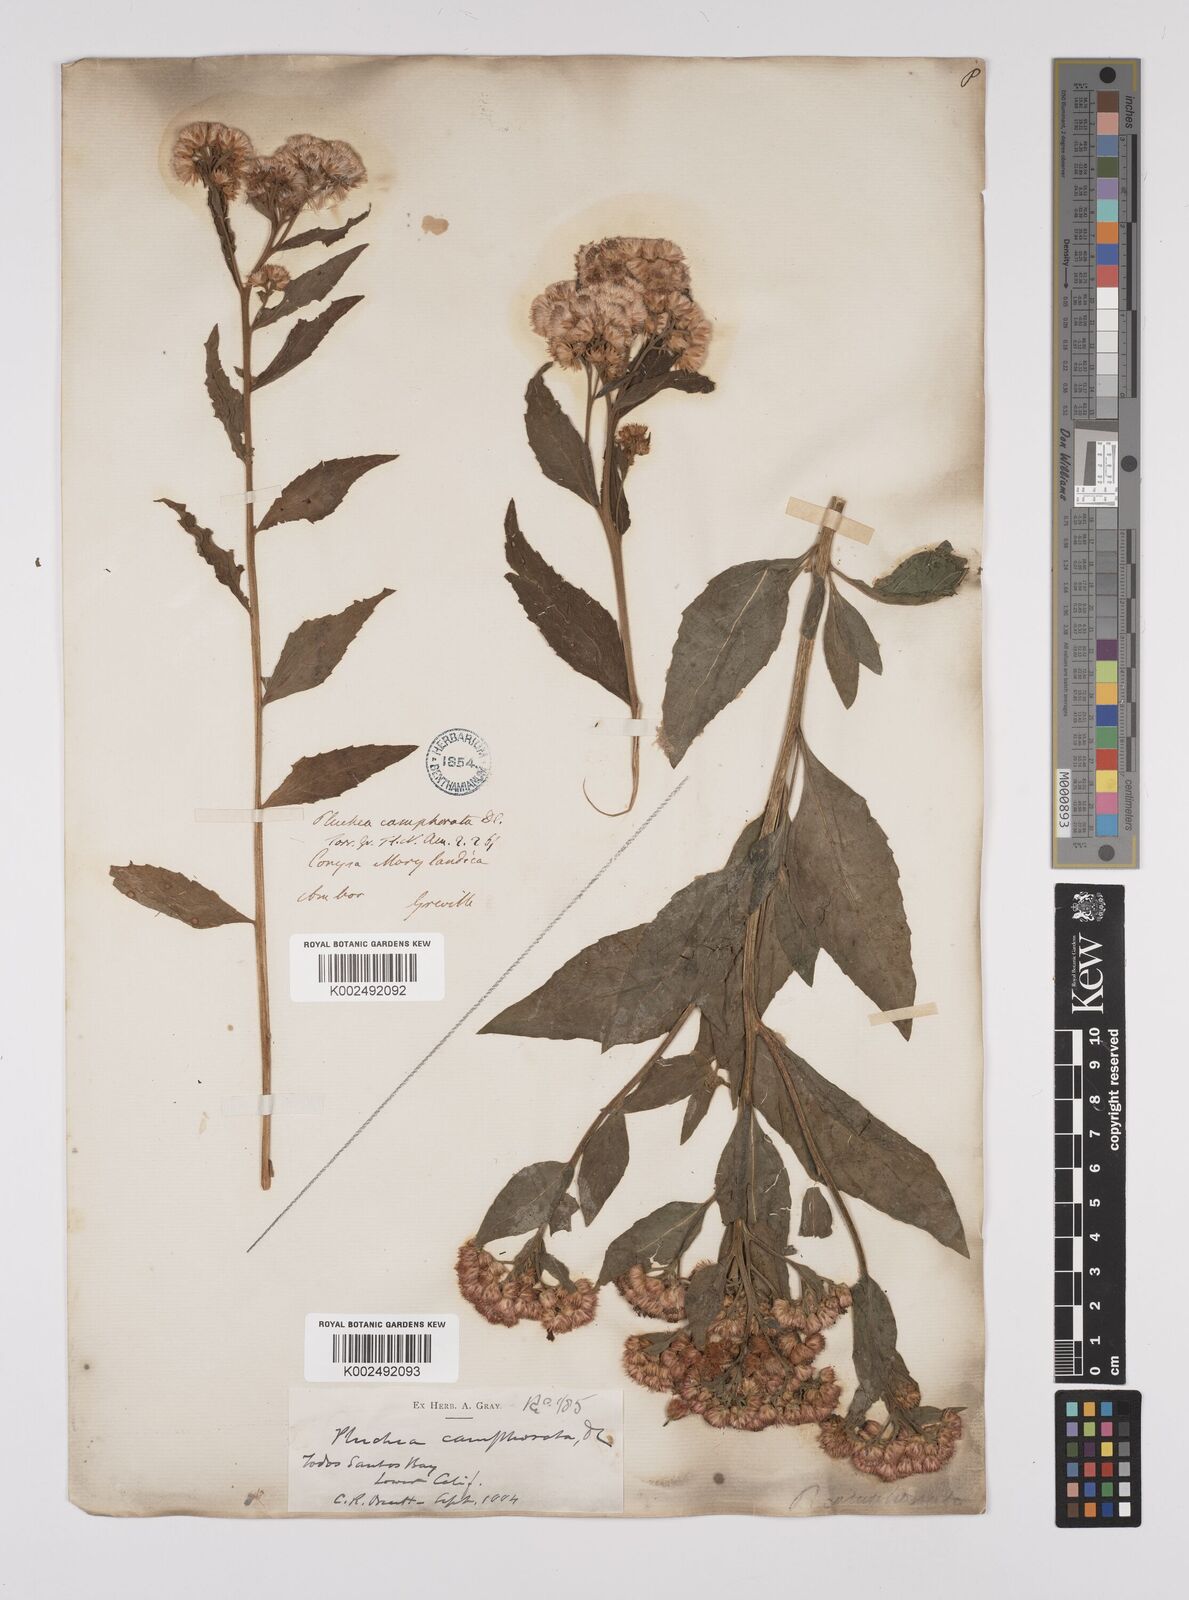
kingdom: Plantae
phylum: Tracheophyta
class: Magnoliopsida
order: Asterales
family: Asteraceae
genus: Pluchea
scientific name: Pluchea camphorata
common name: Camphor pluchea
